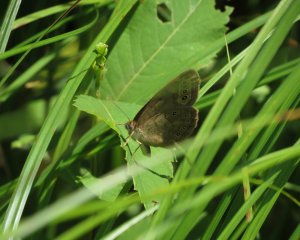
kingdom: Animalia
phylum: Arthropoda
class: Insecta
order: Lepidoptera
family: Nymphalidae
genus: Lethe
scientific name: Lethe eurydice
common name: Eyed Brown
